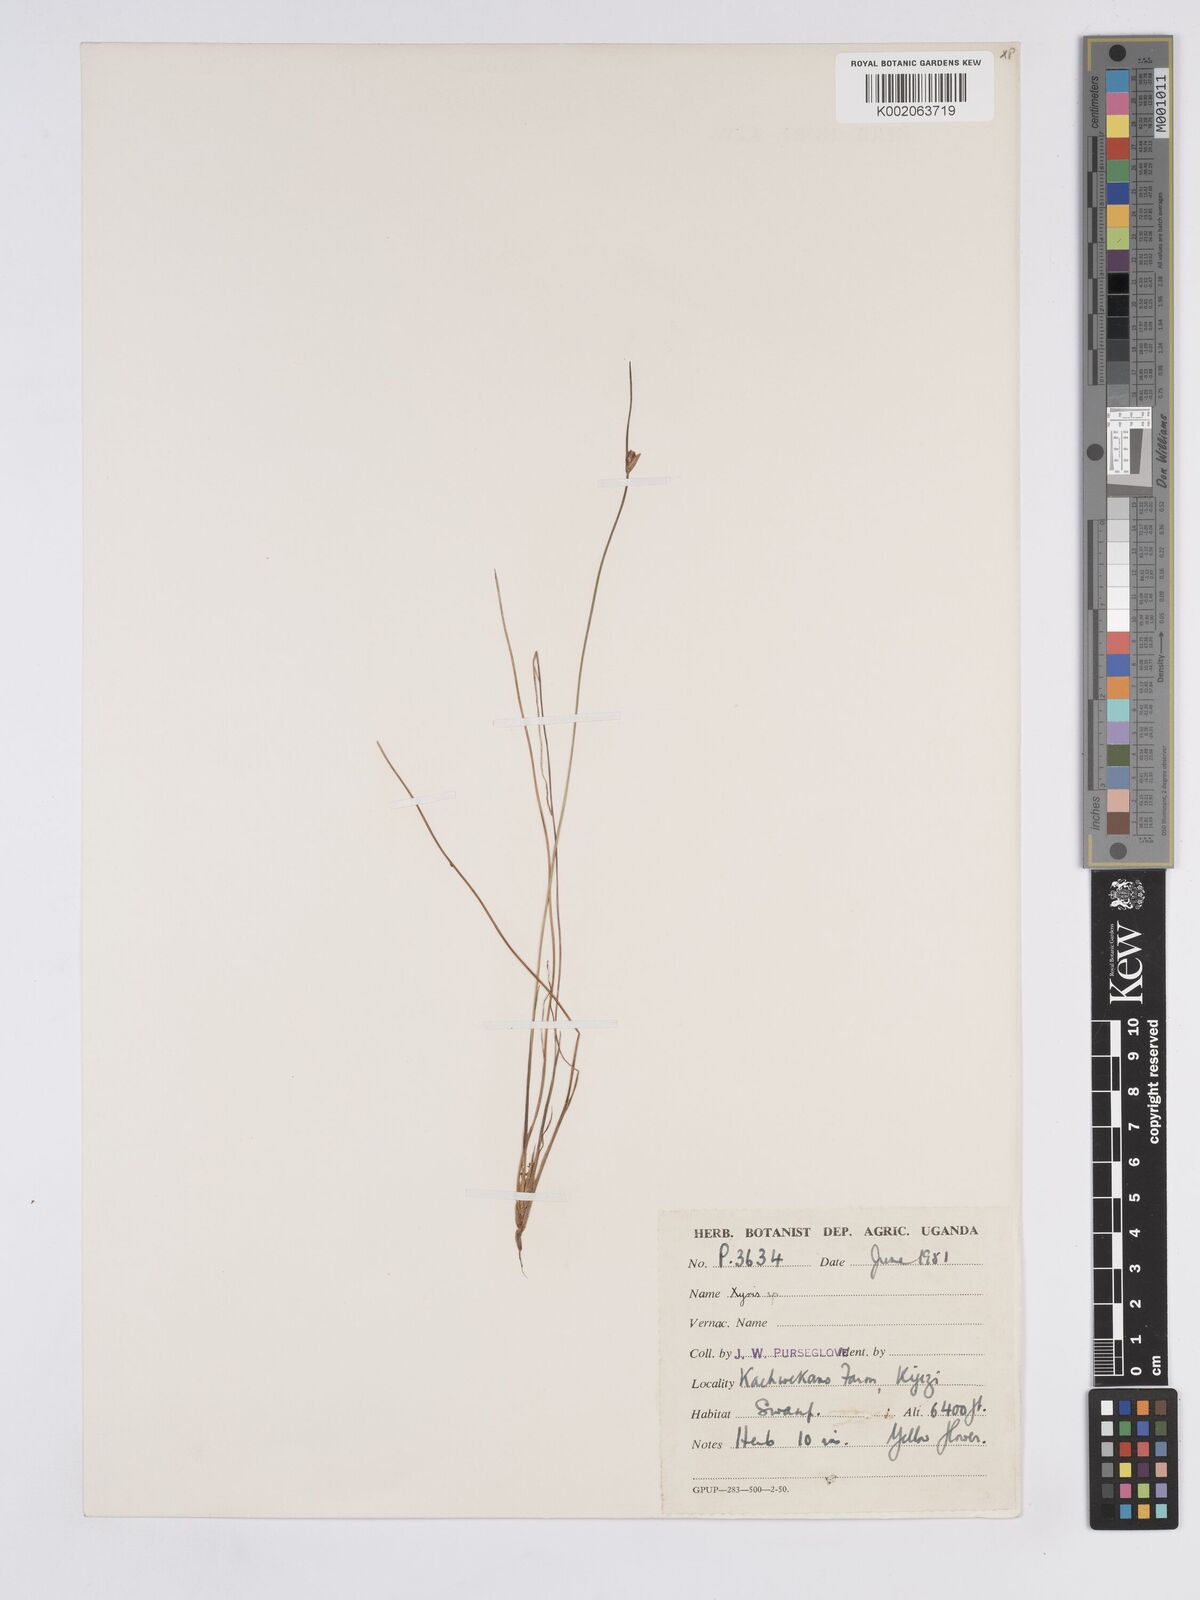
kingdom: Plantae
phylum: Tracheophyta
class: Liliopsida
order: Poales
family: Xyridaceae
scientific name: Xyridaceae
